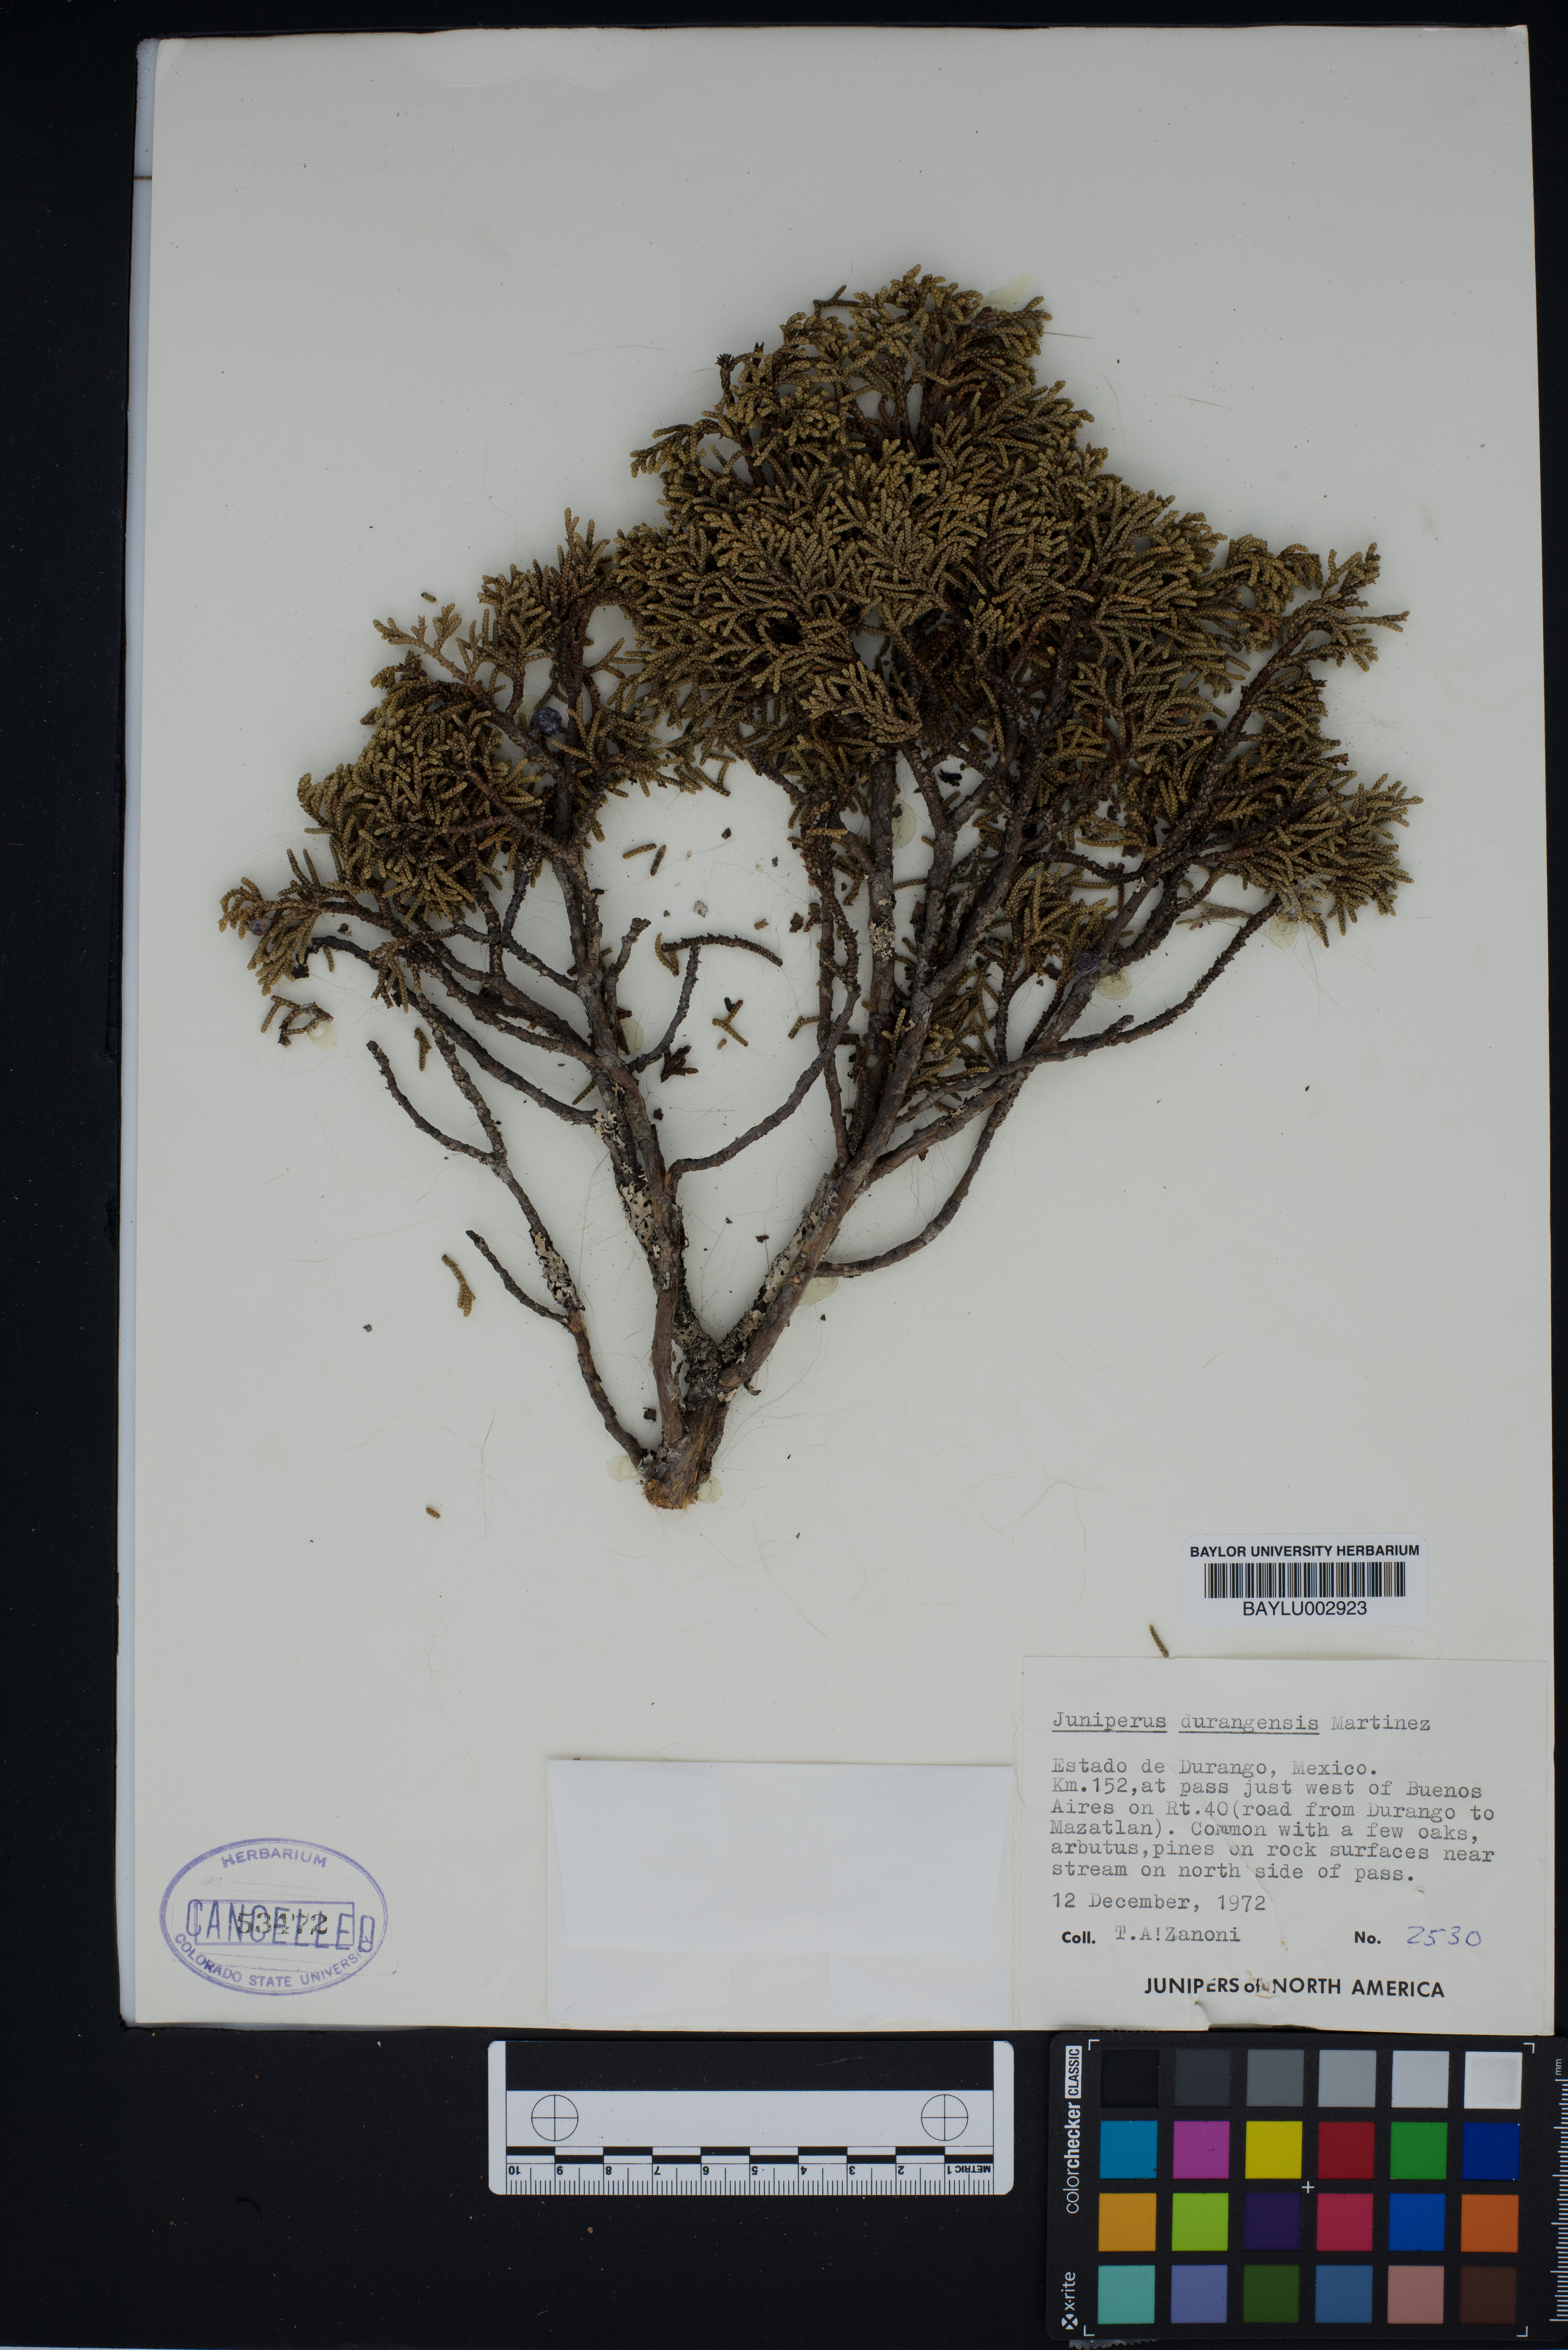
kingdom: Plantae
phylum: Tracheophyta
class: Pinopsida
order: Pinales
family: Cupressaceae
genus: Juniperus
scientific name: Juniperus durangensis
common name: Durango juniper
